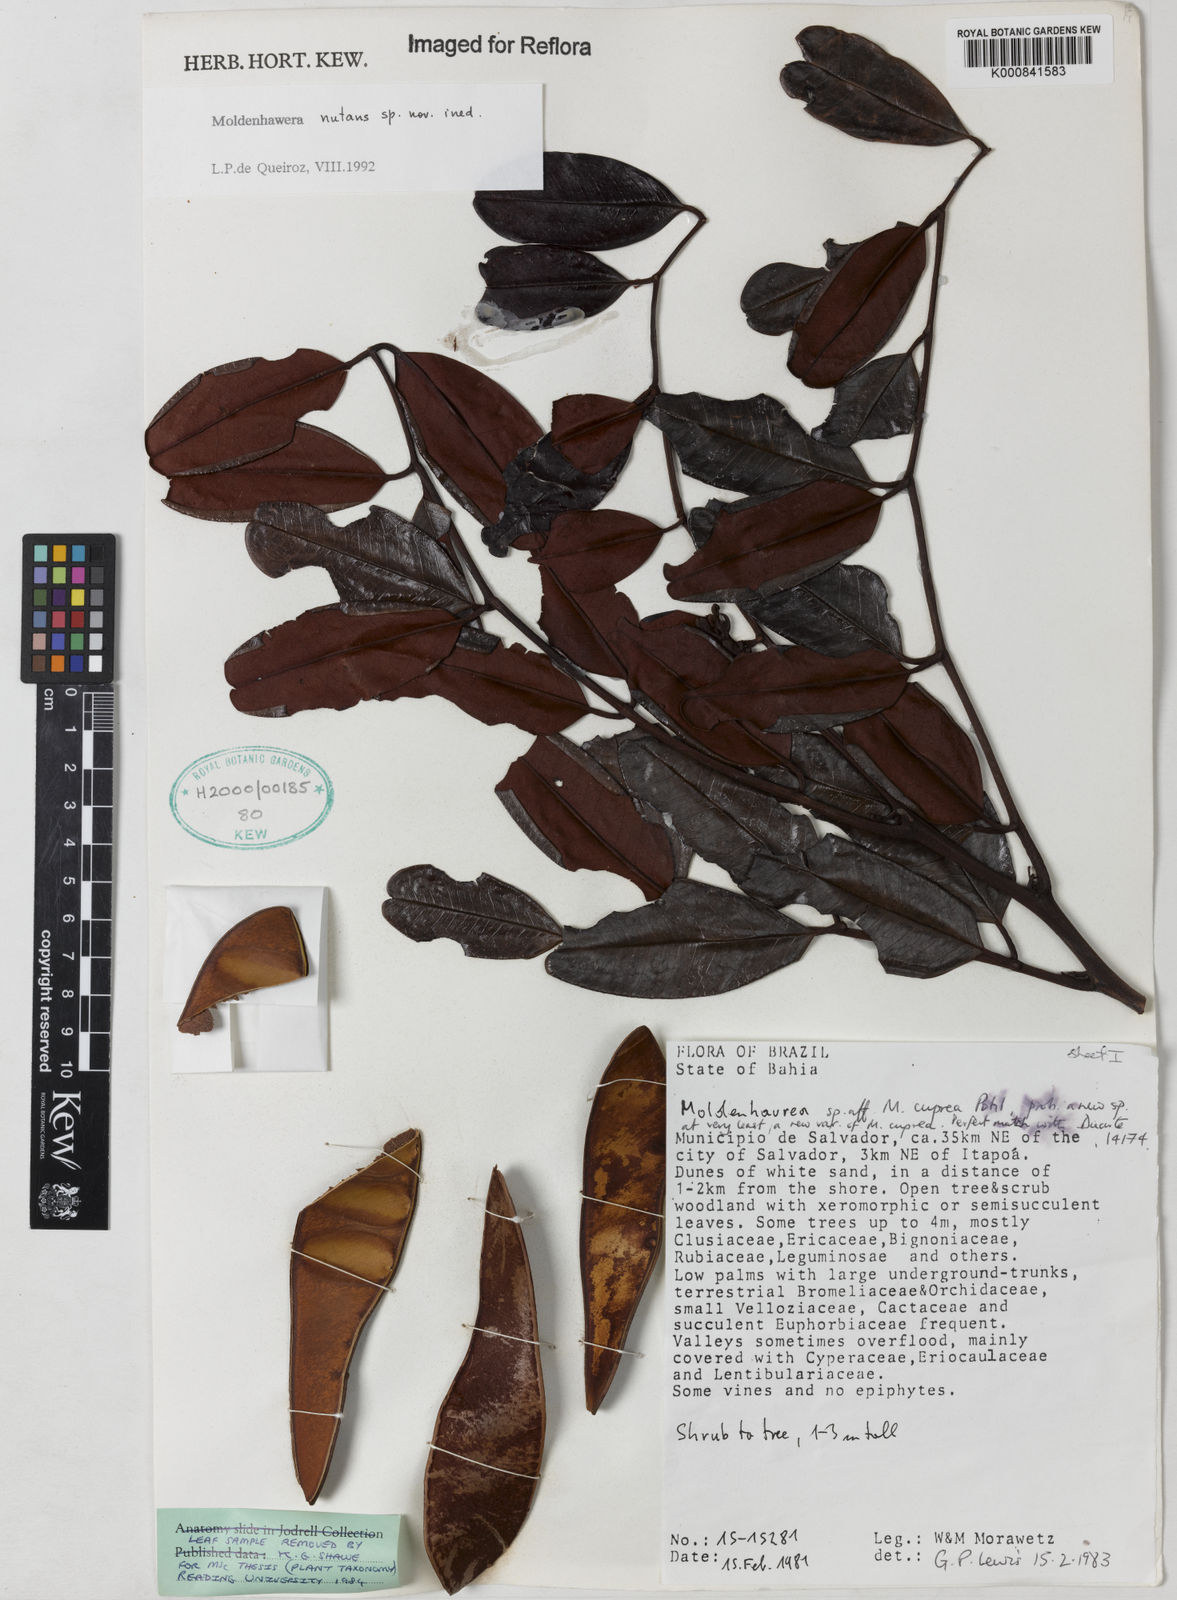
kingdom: Plantae
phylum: Tracheophyta
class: Magnoliopsida
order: Fabales
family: Fabaceae
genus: Moldenhawera
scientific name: Moldenhawera
